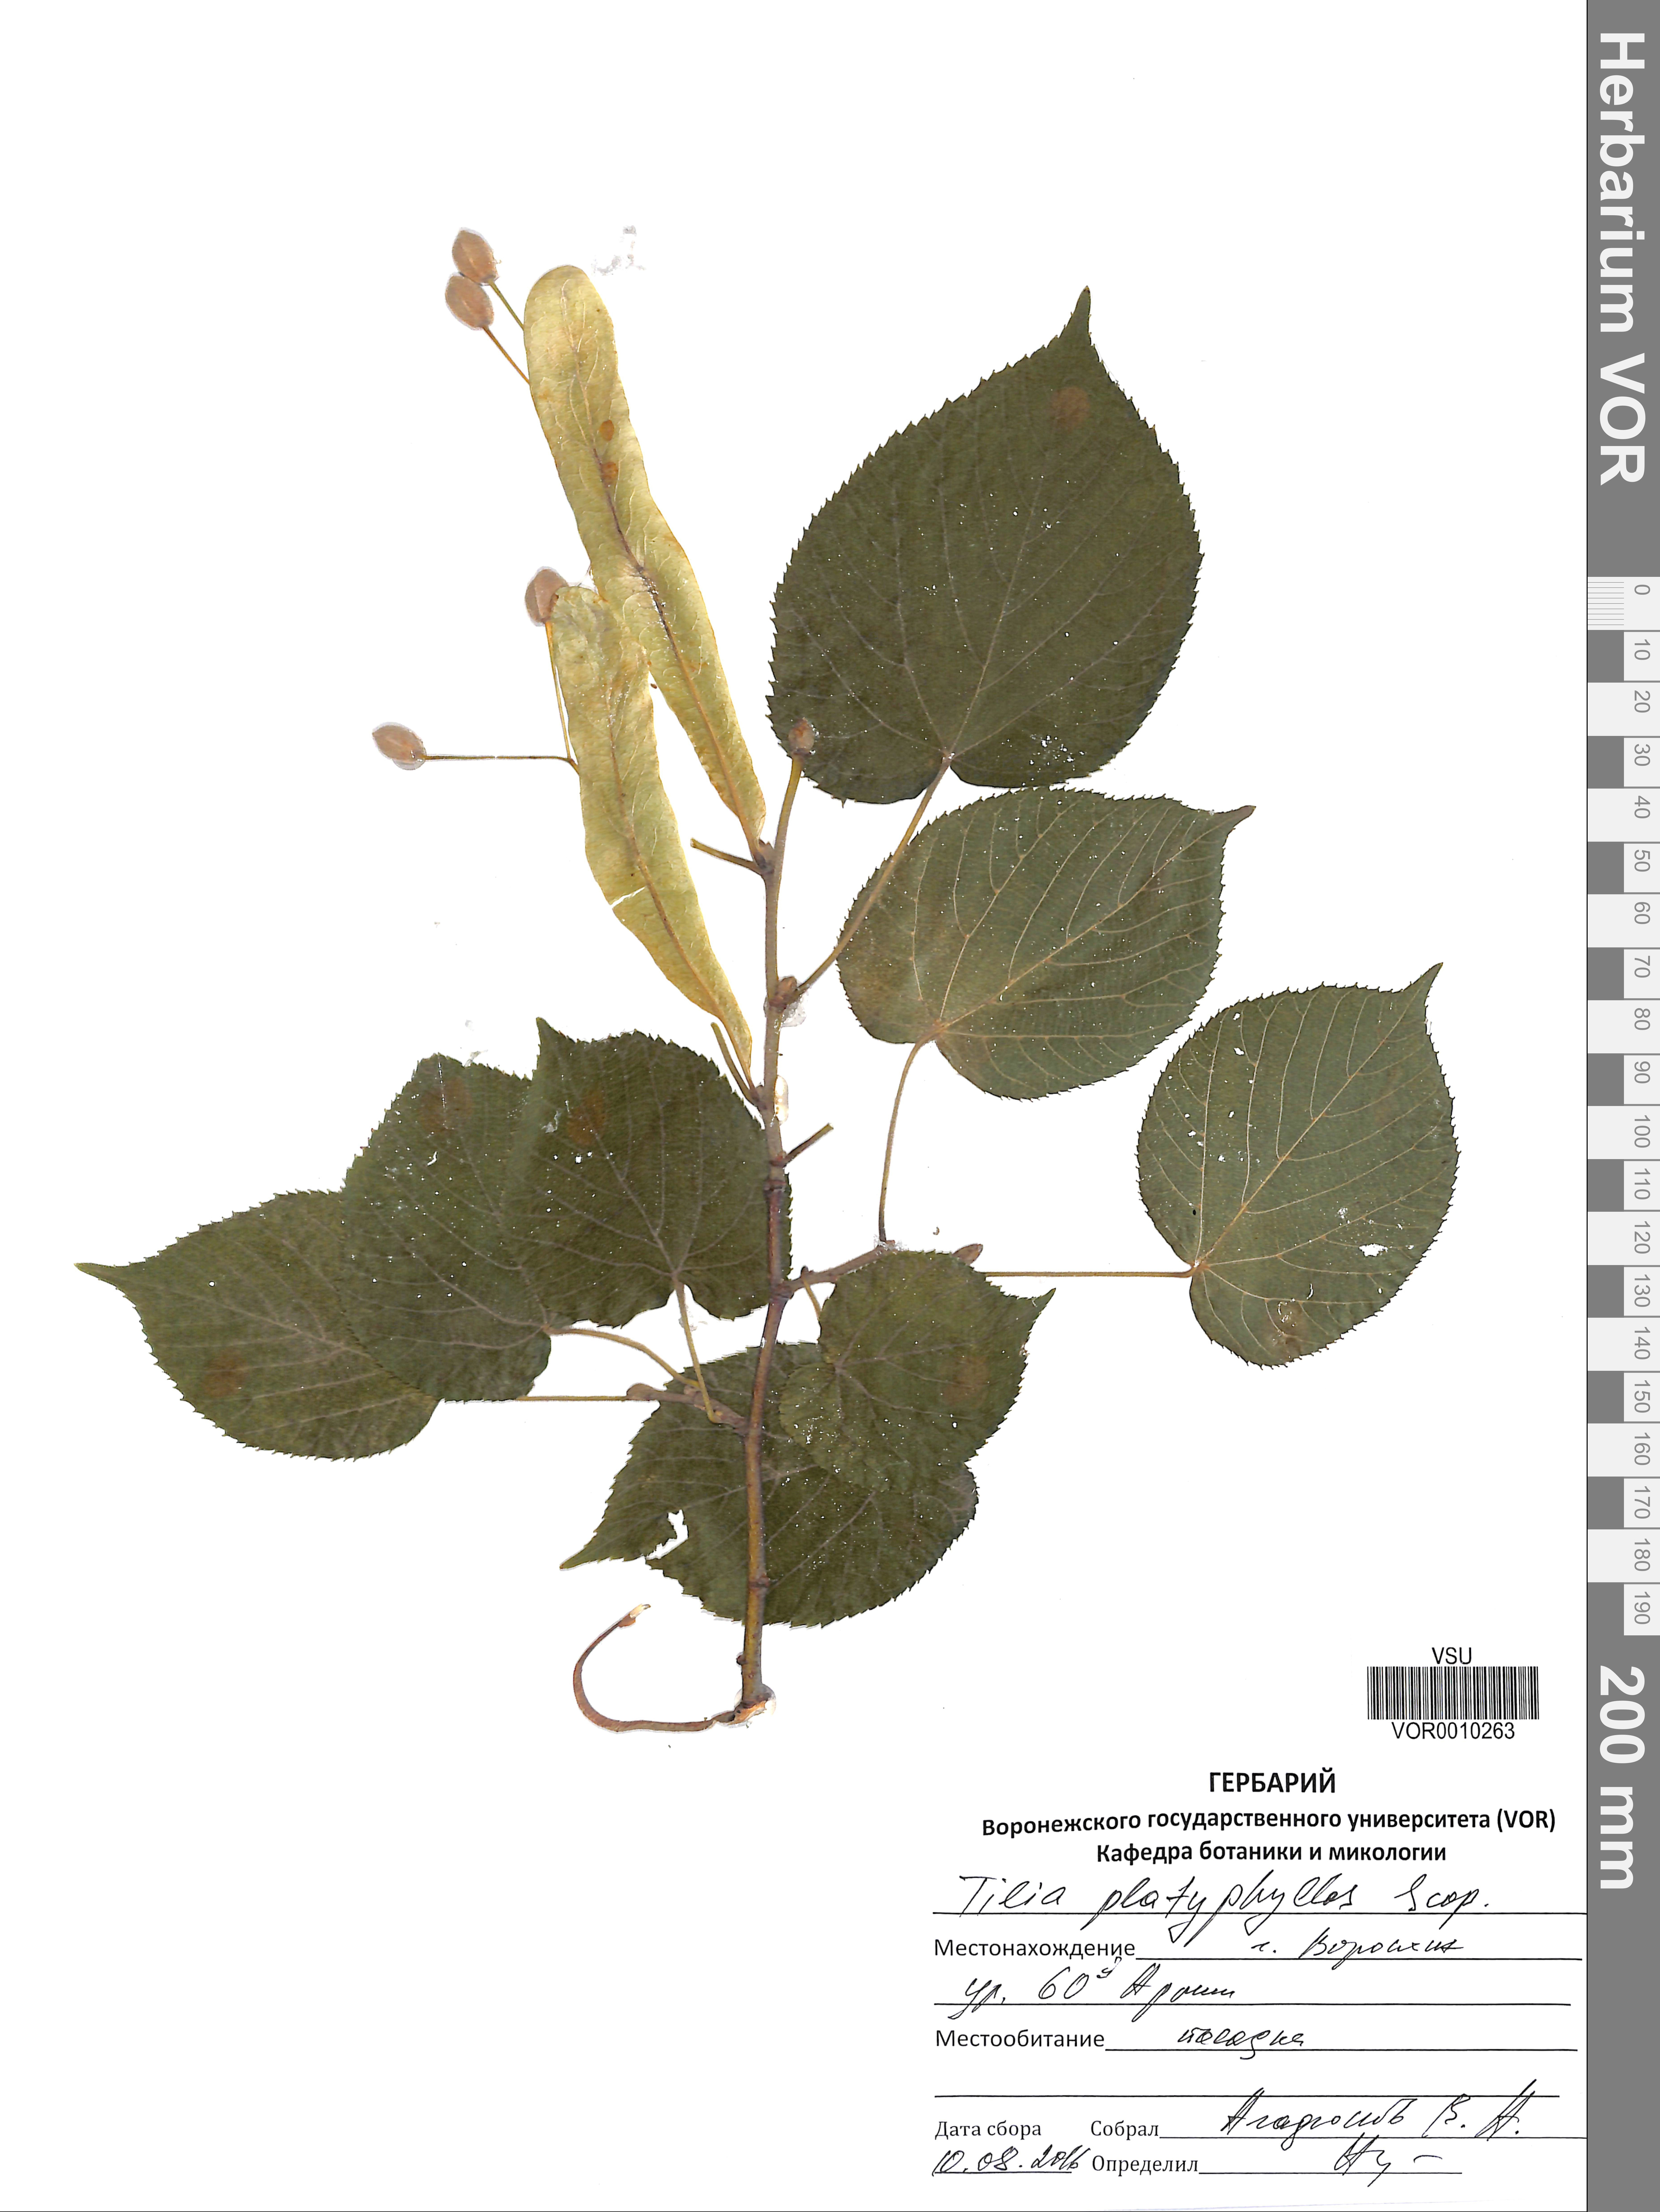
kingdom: Plantae
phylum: Tracheophyta
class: Magnoliopsida
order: Malvales
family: Malvaceae
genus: Tilia
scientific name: Tilia platyphyllos
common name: Large-leaved lime
